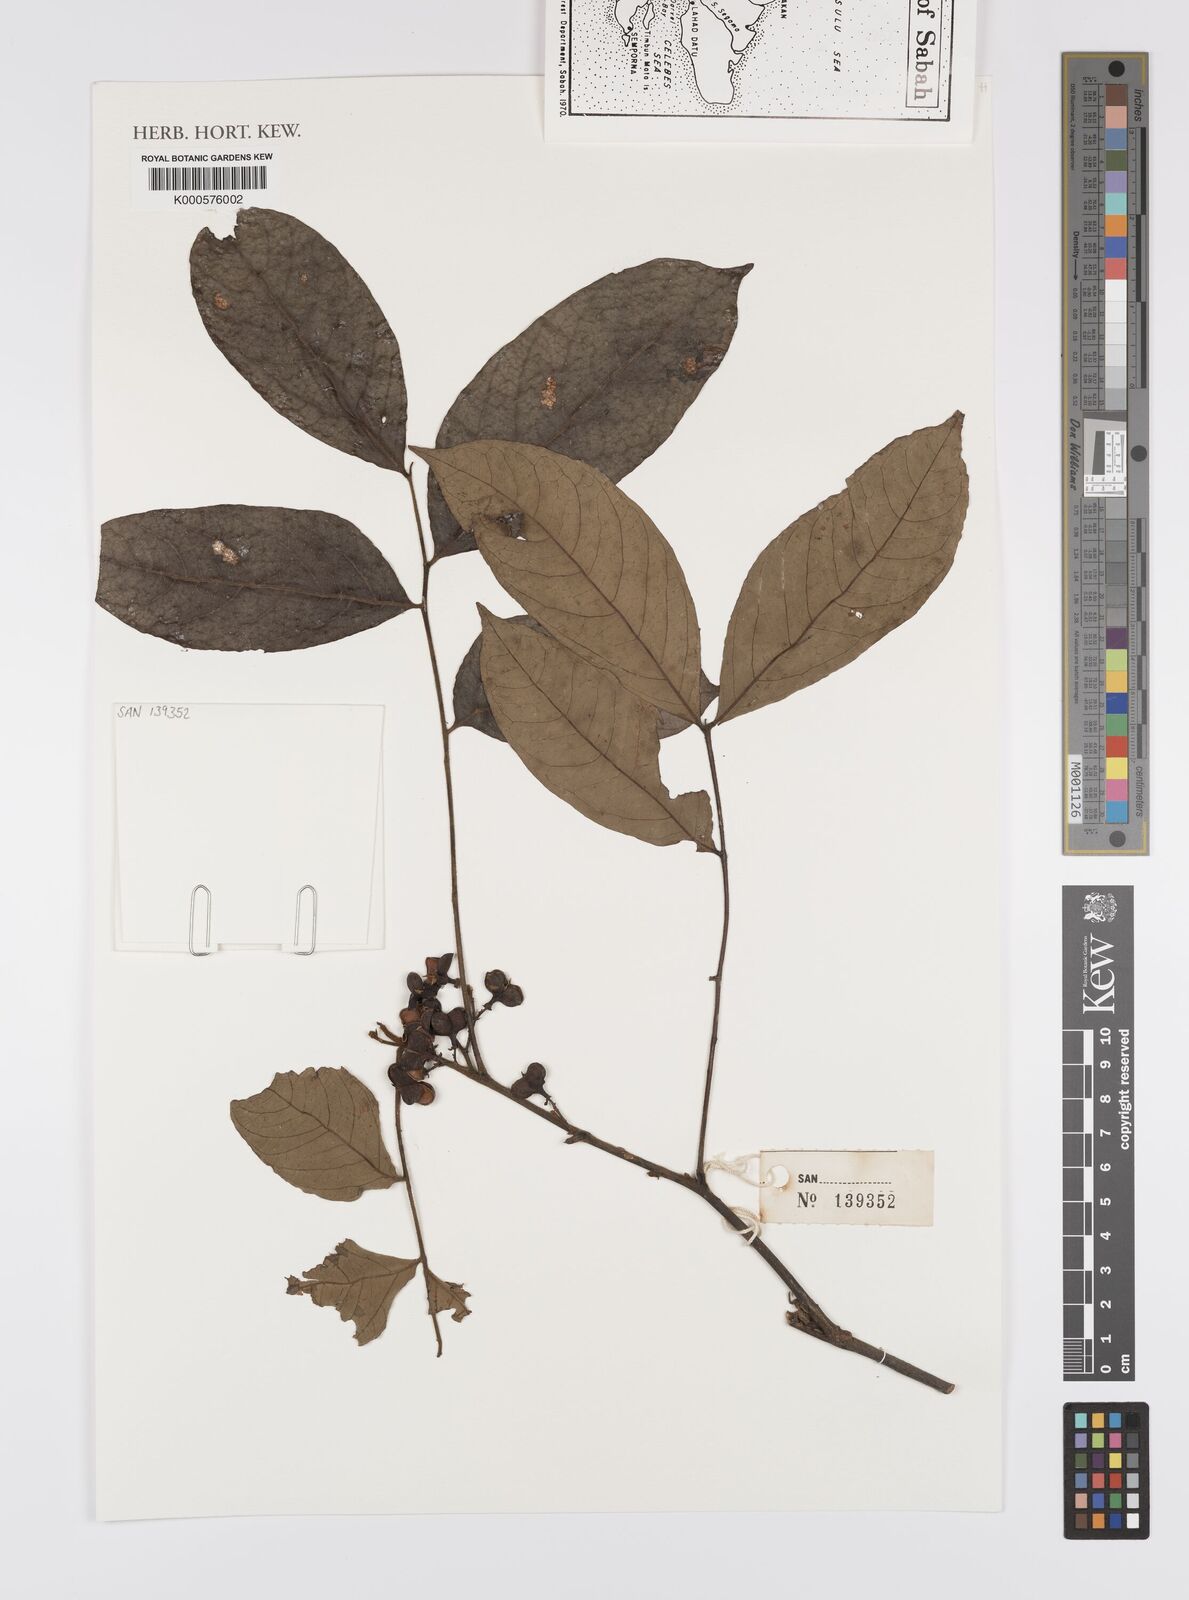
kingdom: Plantae
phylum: Tracheophyta
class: Magnoliopsida
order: Sapindales
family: Sapindaceae
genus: Guioa
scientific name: Guioa pleuropteris
